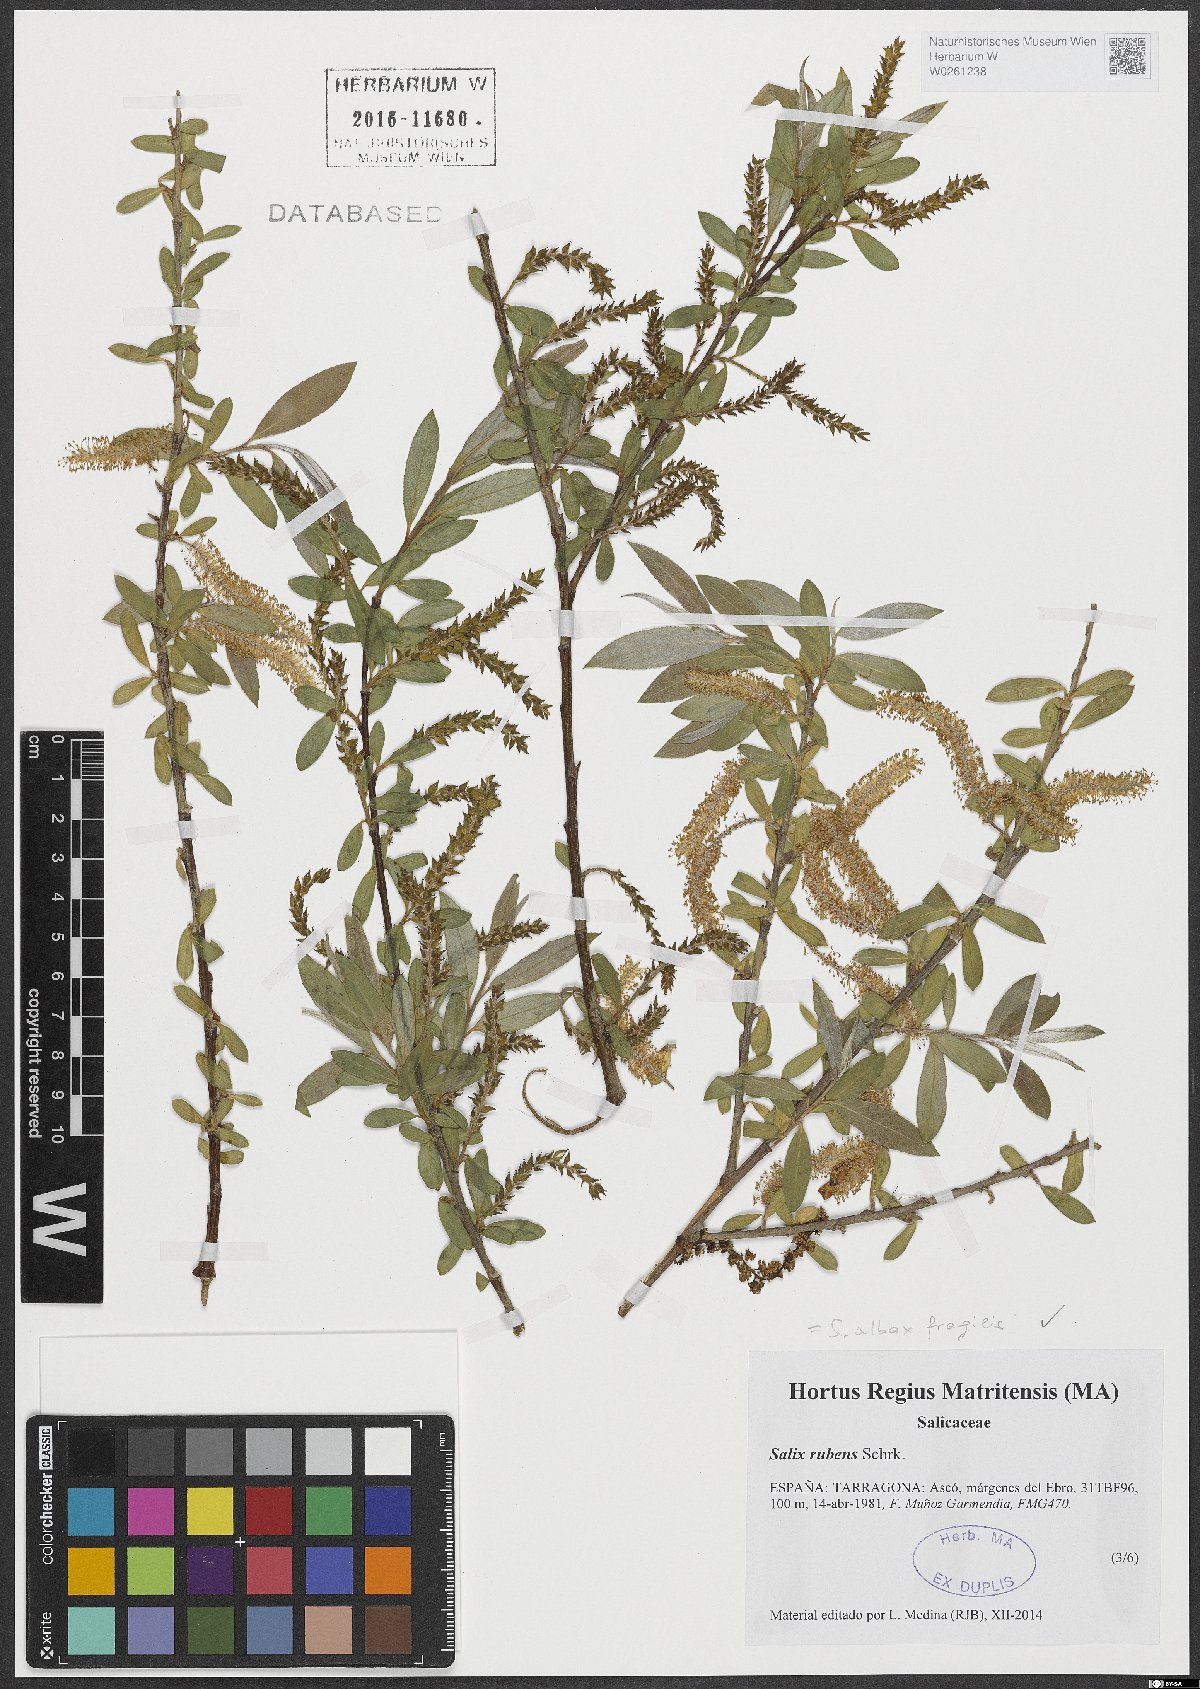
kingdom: Plantae
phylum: Tracheophyta
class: Magnoliopsida
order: Malpighiales
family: Salicaceae
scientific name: Salicaceae
